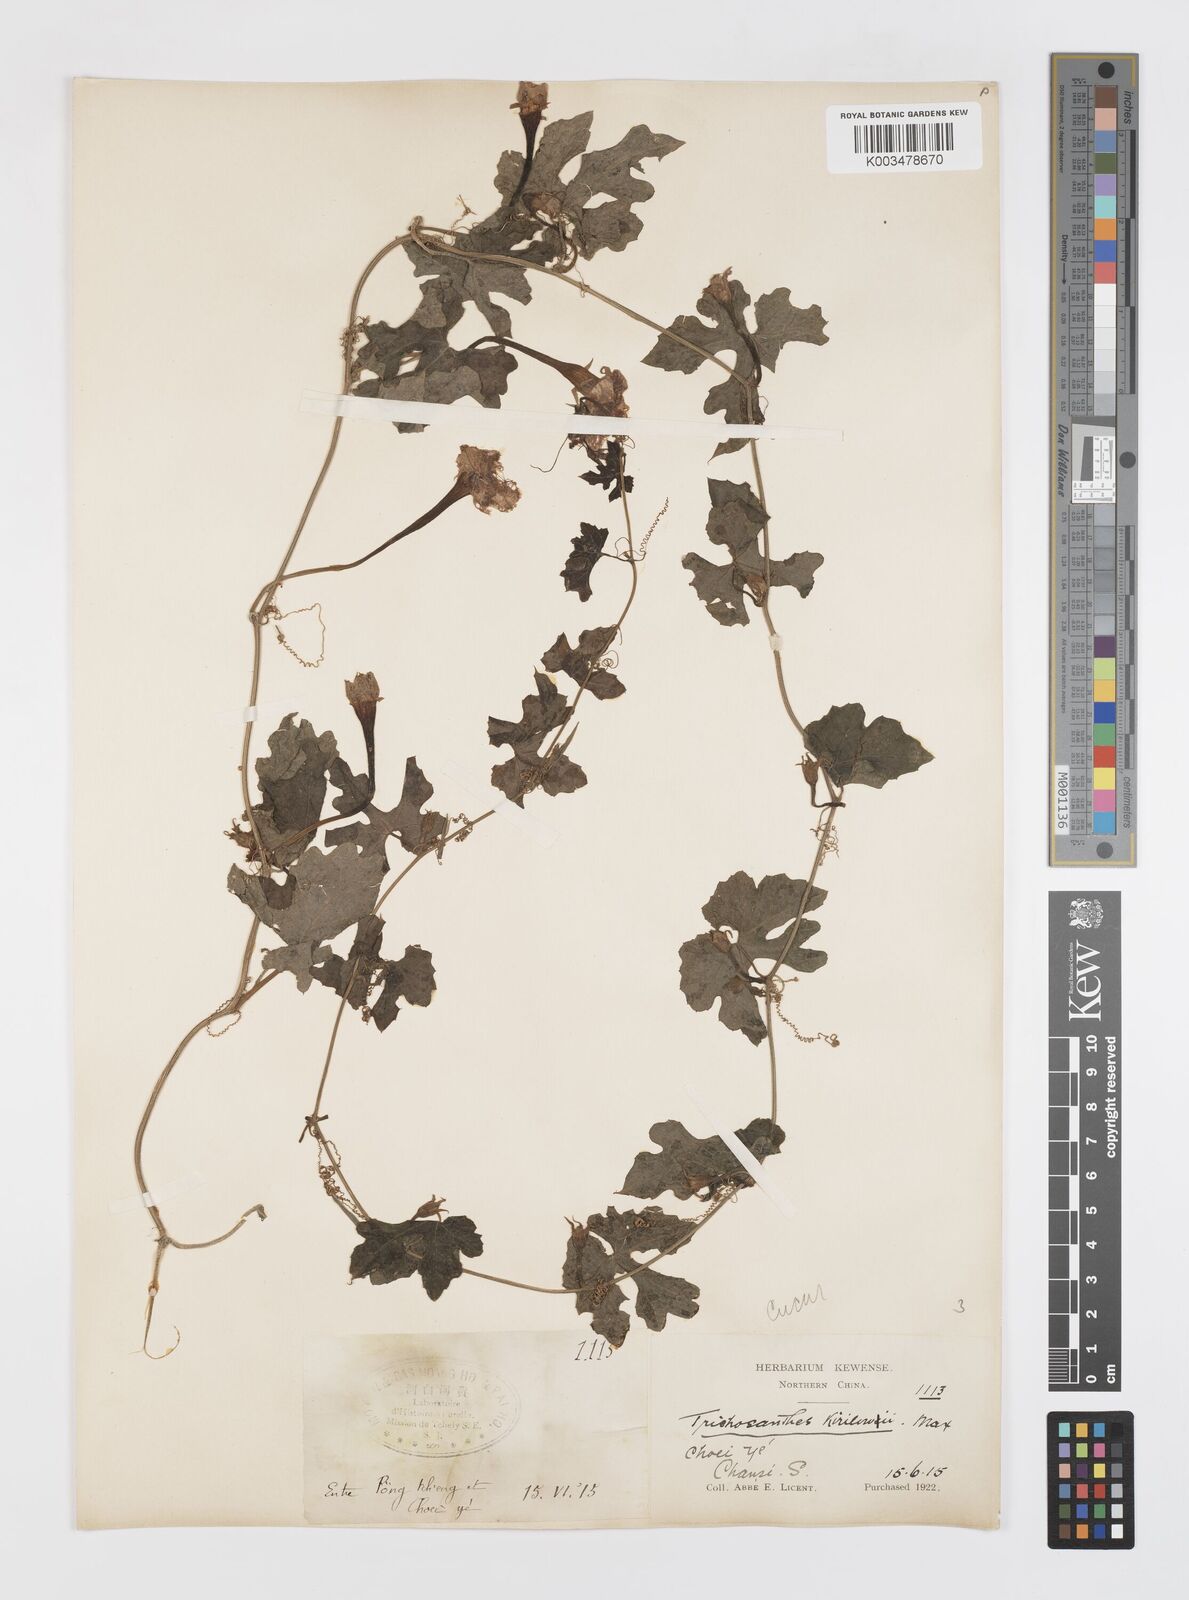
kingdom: Plantae
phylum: Tracheophyta
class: Magnoliopsida
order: Cucurbitales
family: Cucurbitaceae
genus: Trichosanthes
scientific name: Trichosanthes kirilowii
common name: Chinese-cucumber
